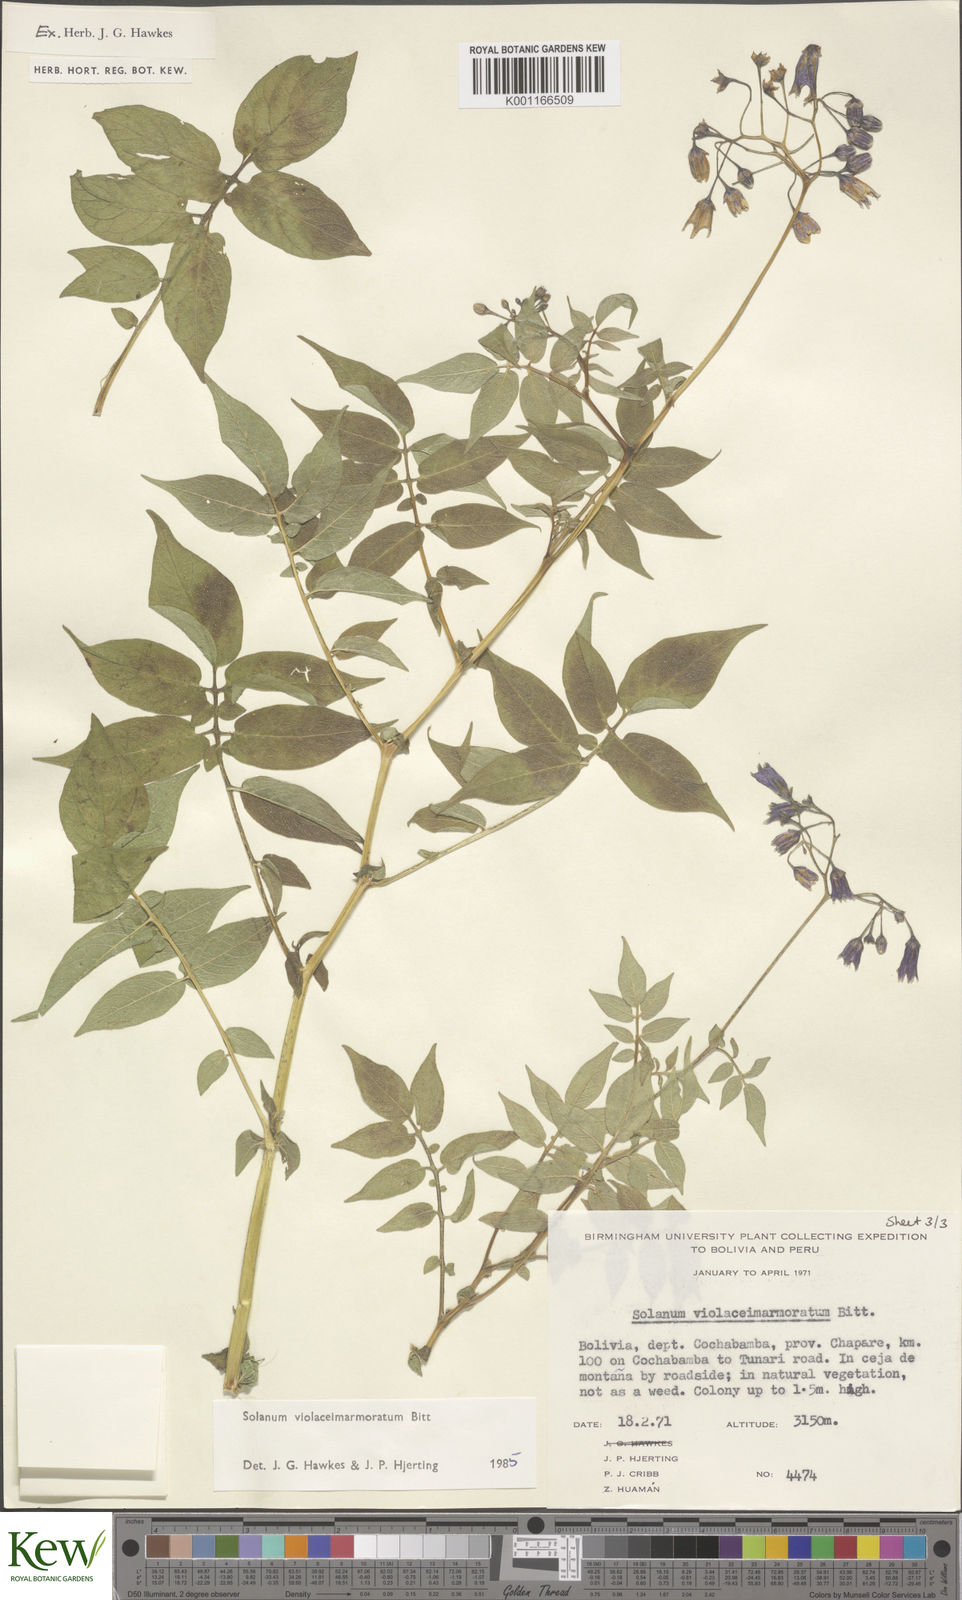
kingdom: Plantae
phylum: Tracheophyta
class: Magnoliopsida
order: Solanales
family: Solanaceae
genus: Solanum
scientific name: Solanum violaceimarmoratum
